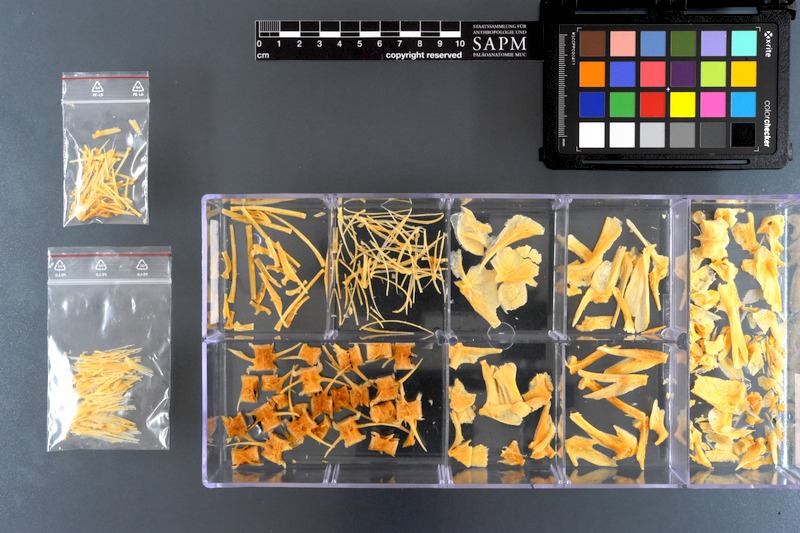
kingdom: Animalia
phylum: Chordata
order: Perciformes
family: Carangidae
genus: Seriolina
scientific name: Seriolina nigrofasciata
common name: Blackbanded trevally
